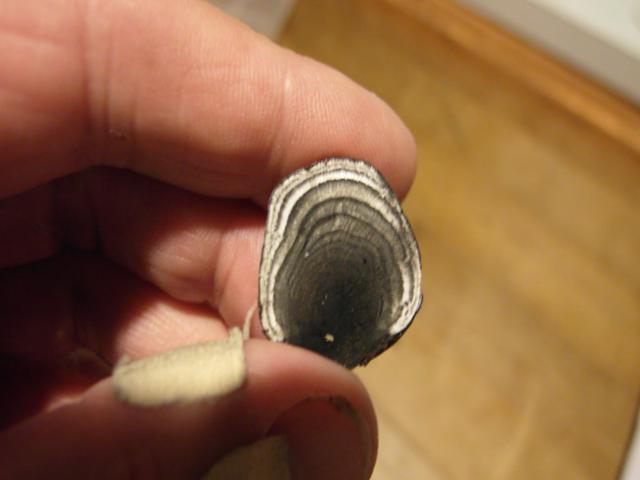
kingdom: Fungi
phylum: Ascomycota
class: Sordariomycetes
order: Xylariales
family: Hypoxylaceae
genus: Daldinia
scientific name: Daldinia concentrica
